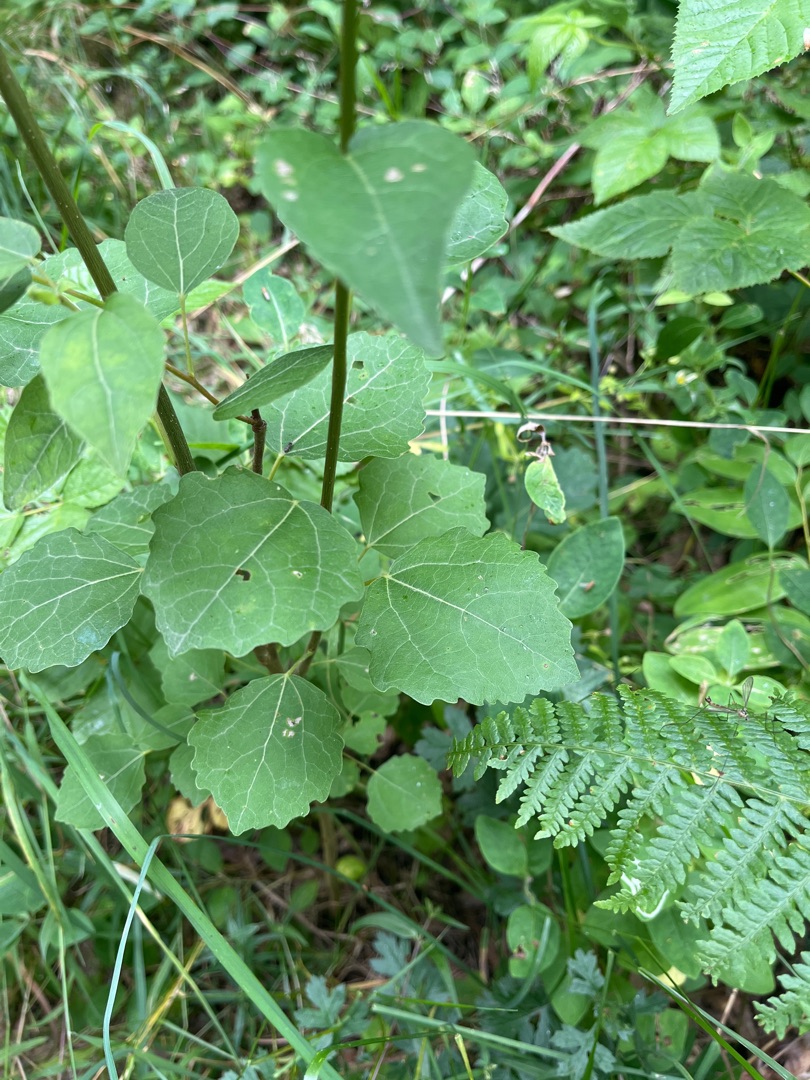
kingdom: Plantae
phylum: Tracheophyta
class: Magnoliopsida
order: Malpighiales
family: Salicaceae
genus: Populus
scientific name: Populus tremula
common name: Bævreasp
